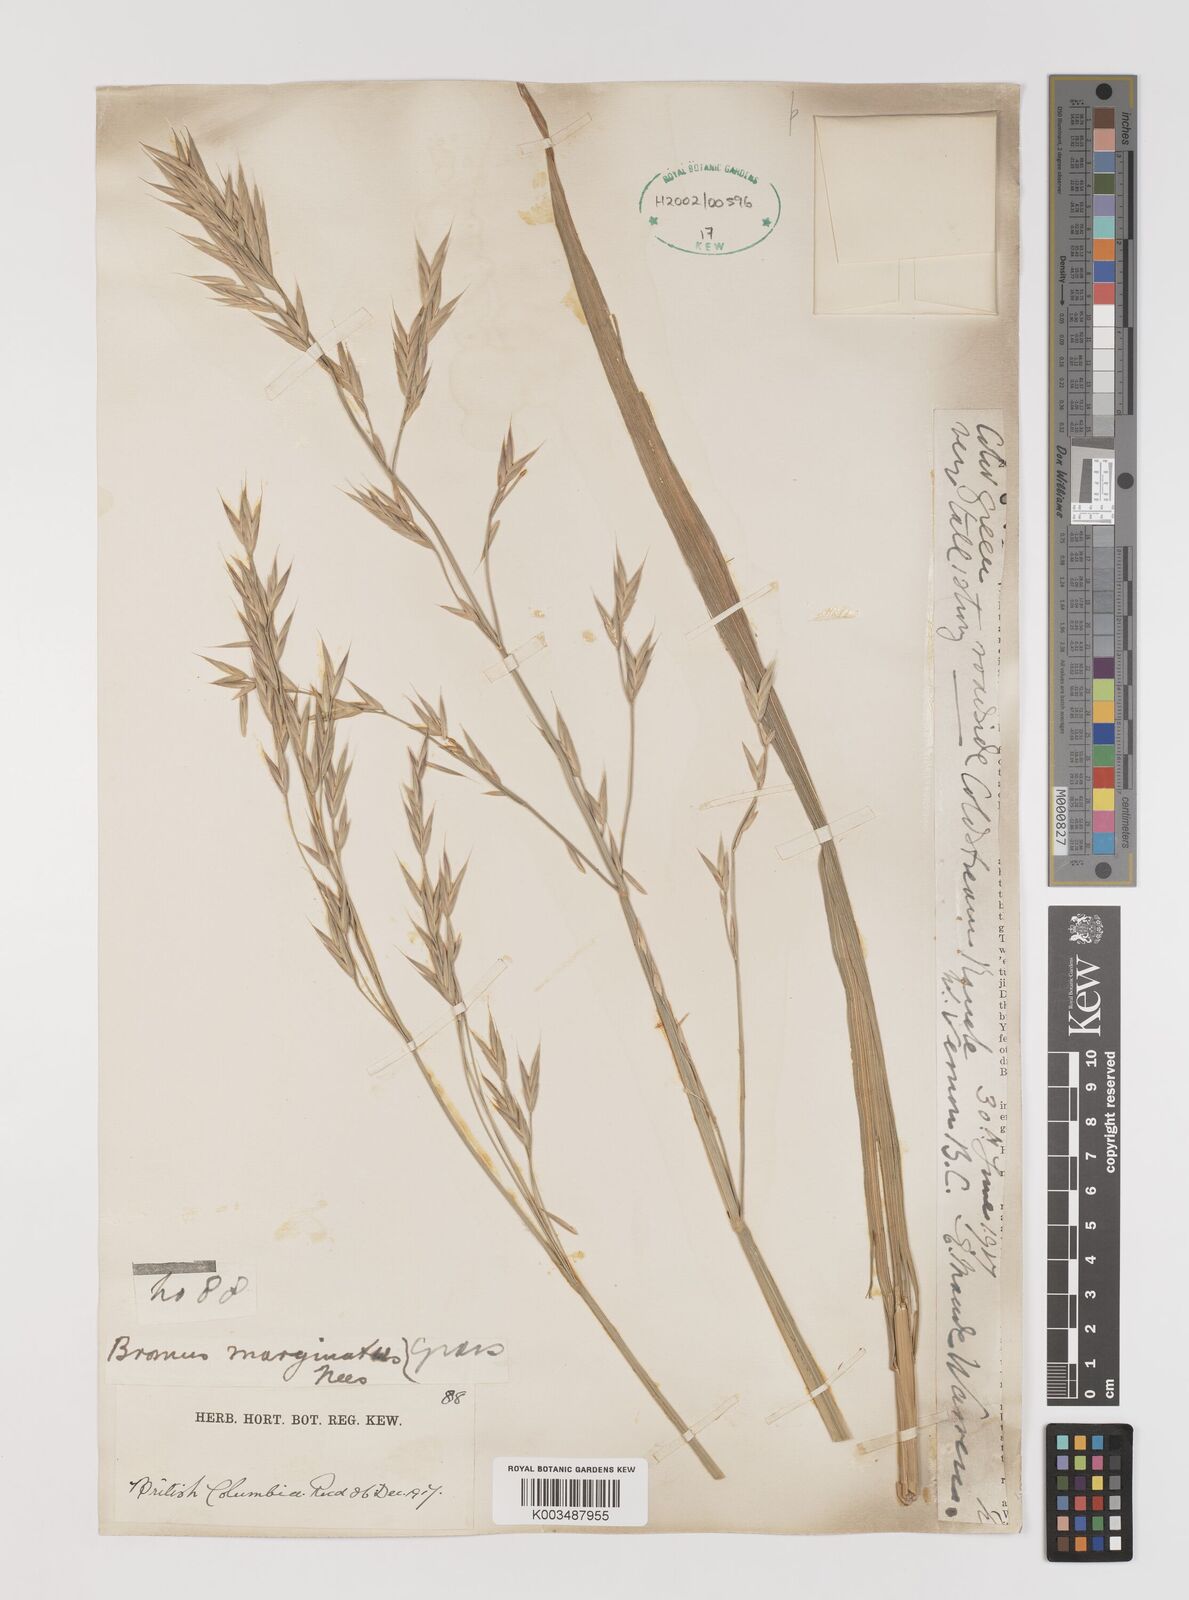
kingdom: Plantae
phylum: Tracheophyta
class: Liliopsida
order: Poales
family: Poaceae
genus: Bromus
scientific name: Bromus marginatus
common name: Western brome
